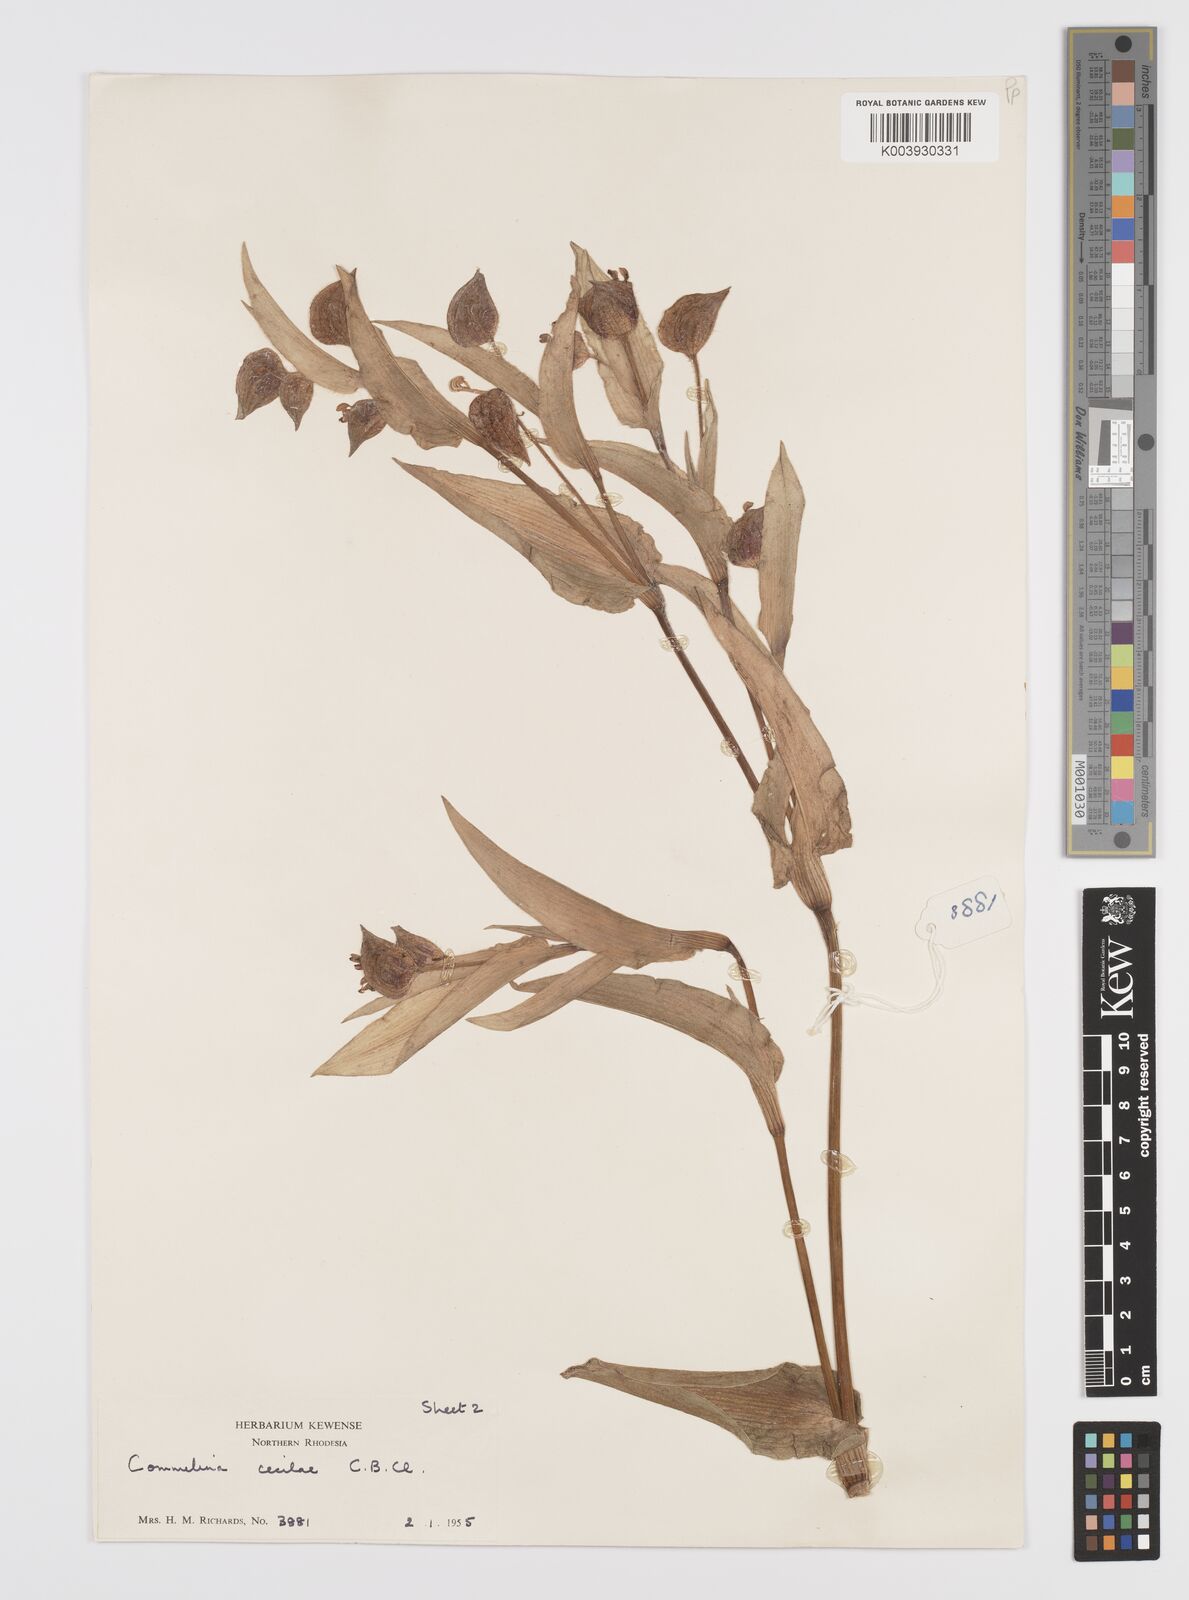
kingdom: Plantae
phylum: Tracheophyta
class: Liliopsida
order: Commelinales
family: Commelinaceae
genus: Commelina
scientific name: Commelina cecilae
